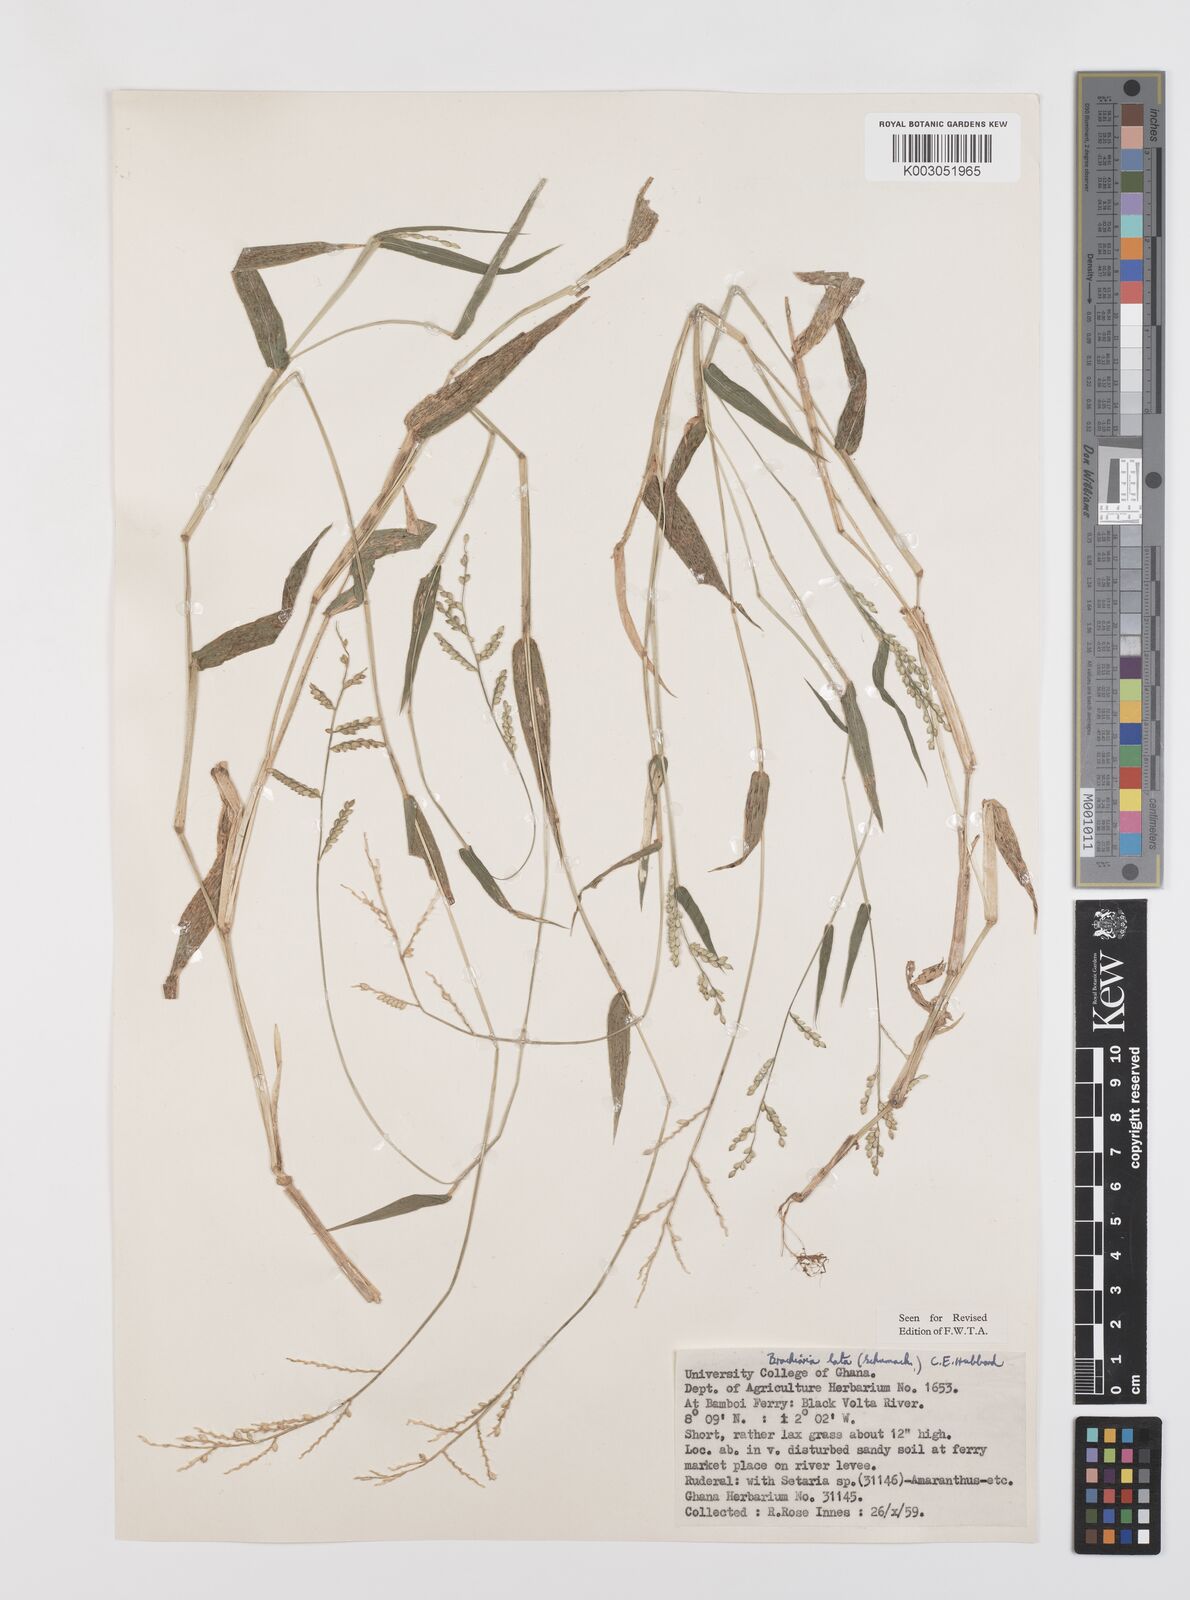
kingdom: Plantae
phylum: Tracheophyta
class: Liliopsida
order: Poales
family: Poaceae
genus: Urochloa
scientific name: Urochloa lata
